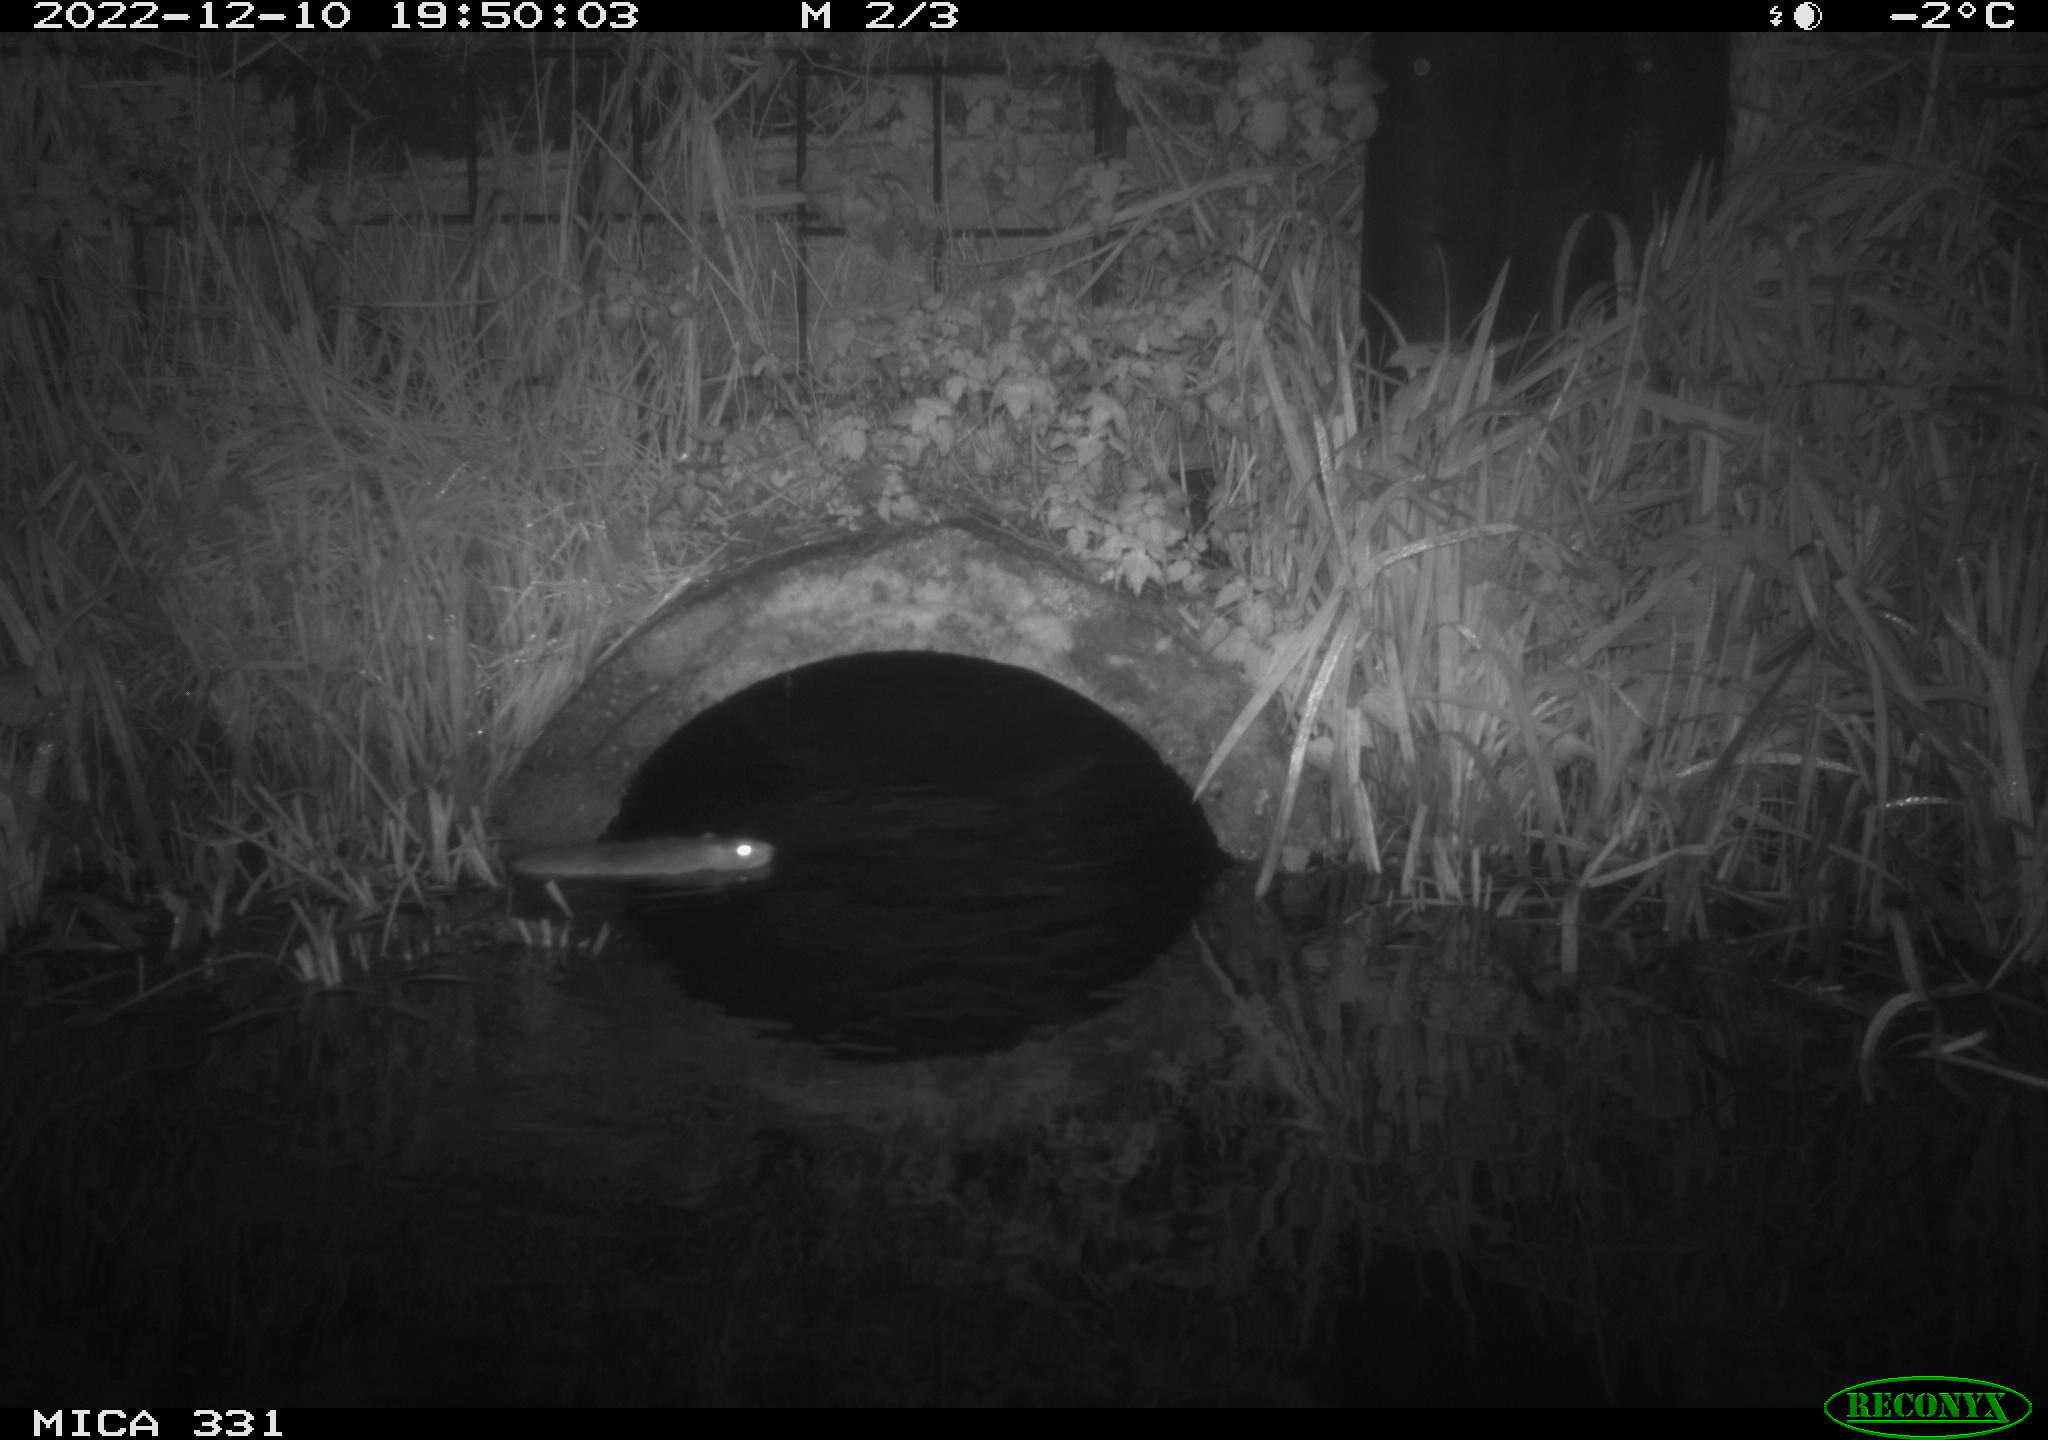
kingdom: Animalia
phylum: Chordata
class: Mammalia
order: Rodentia
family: Muridae
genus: Rattus
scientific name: Rattus norvegicus
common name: Brown rat
